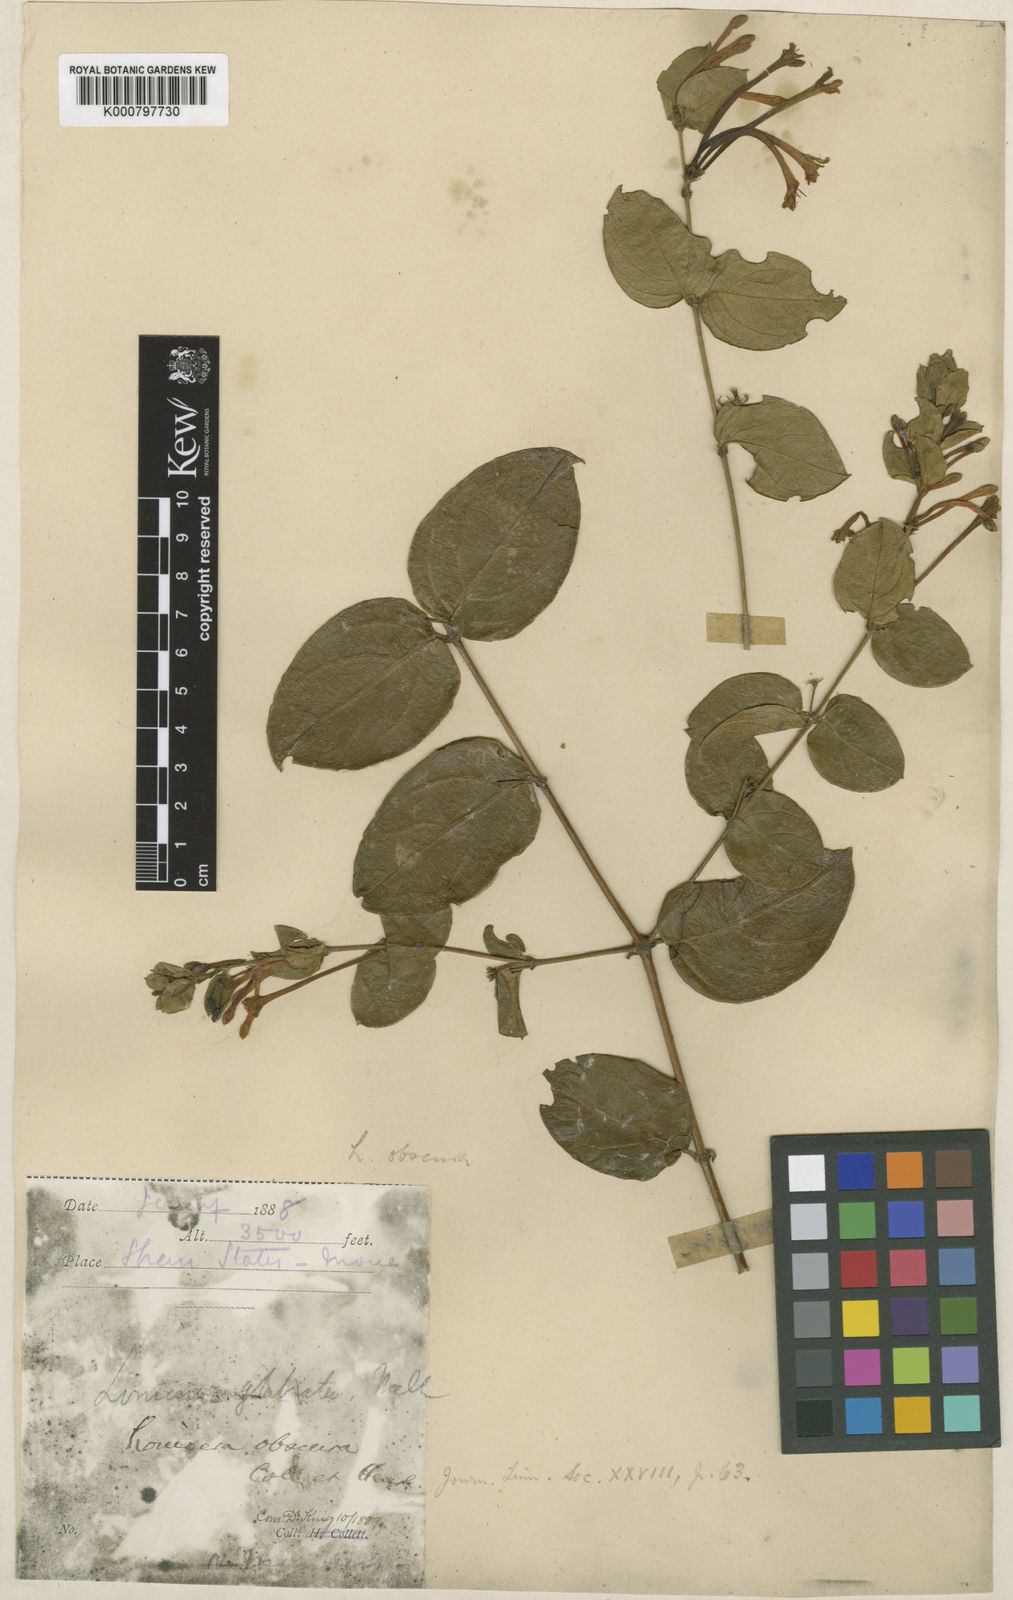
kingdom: Plantae
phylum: Tracheophyta
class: Magnoliopsida
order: Dipsacales
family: Caprifoliaceae
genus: Lonicera
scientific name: Lonicera bournei
